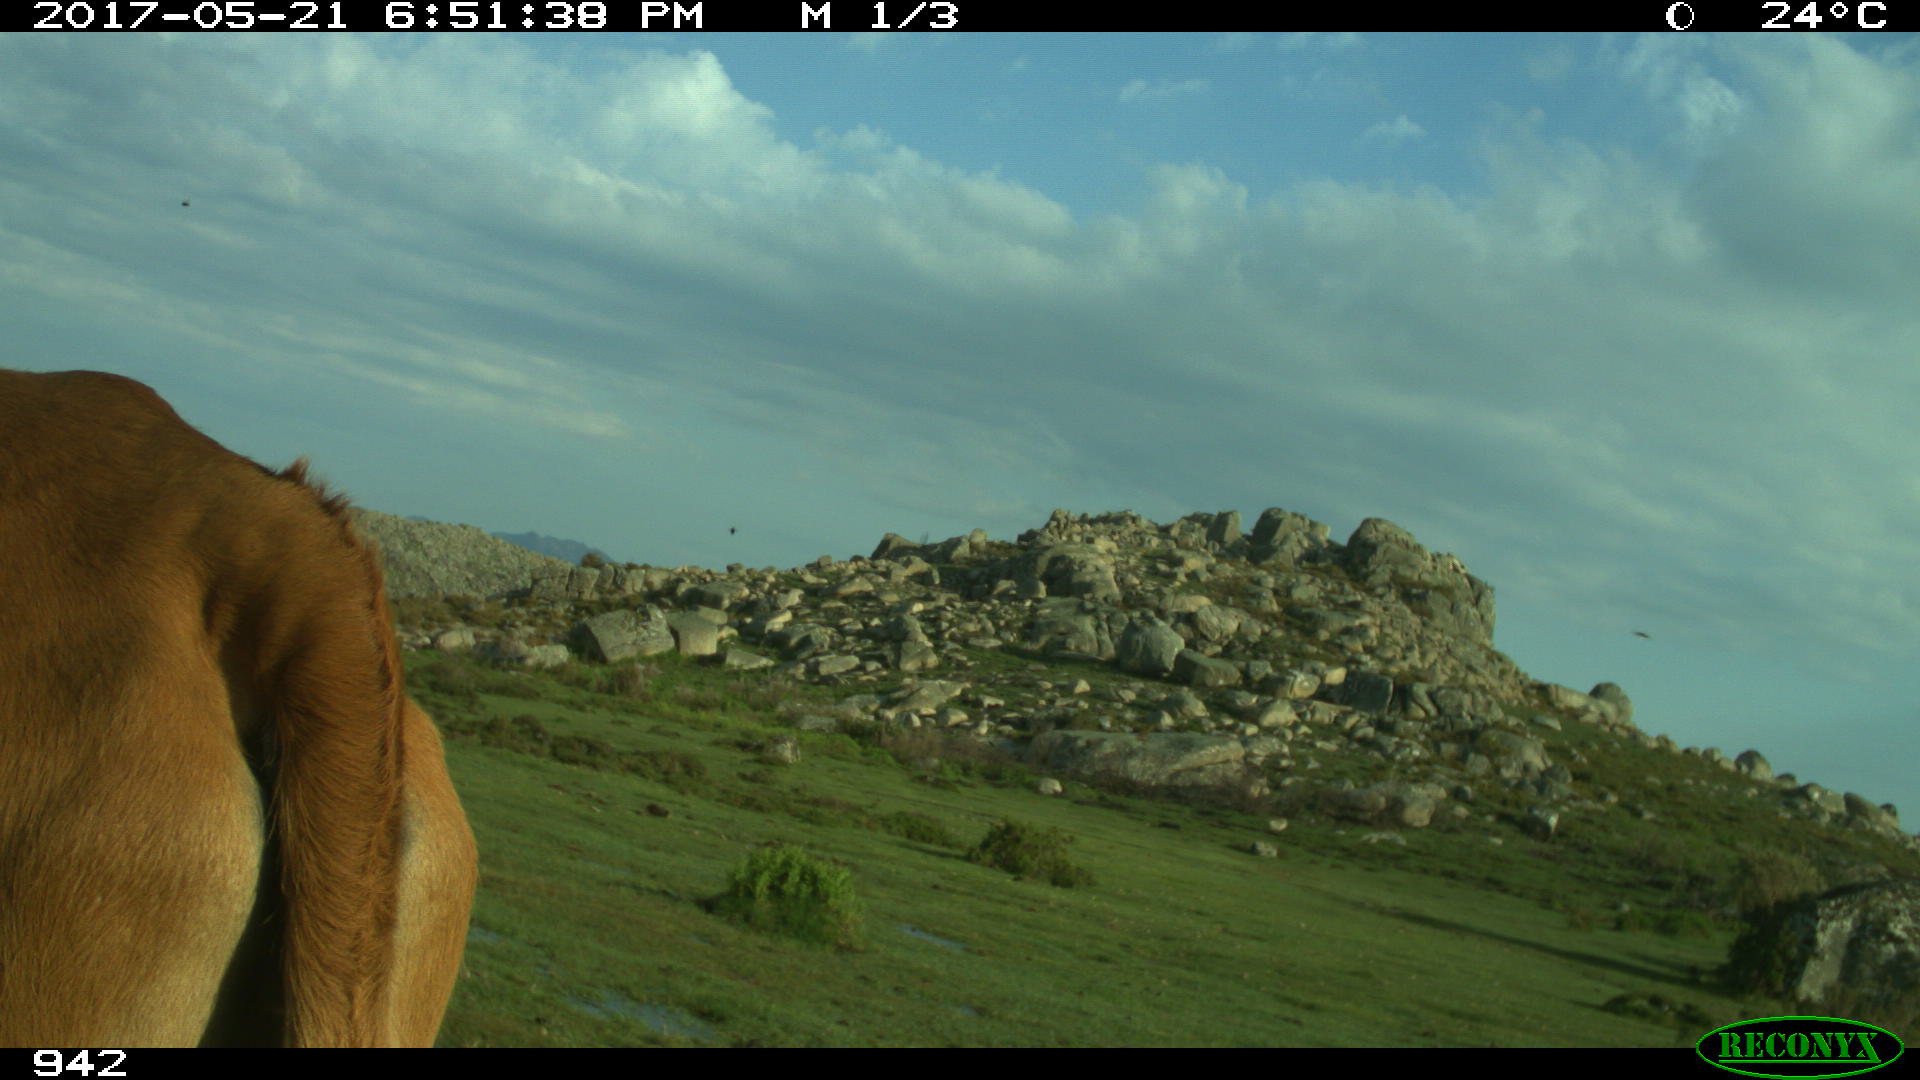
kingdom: Animalia
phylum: Chordata
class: Mammalia
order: Artiodactyla
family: Bovidae
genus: Bos
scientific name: Bos taurus
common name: Domesticated cattle
